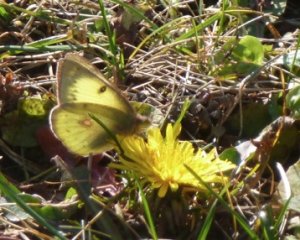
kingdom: Animalia
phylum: Arthropoda
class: Insecta
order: Lepidoptera
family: Pieridae
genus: Colias
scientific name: Colias philodice
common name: Clouded Sulphur
